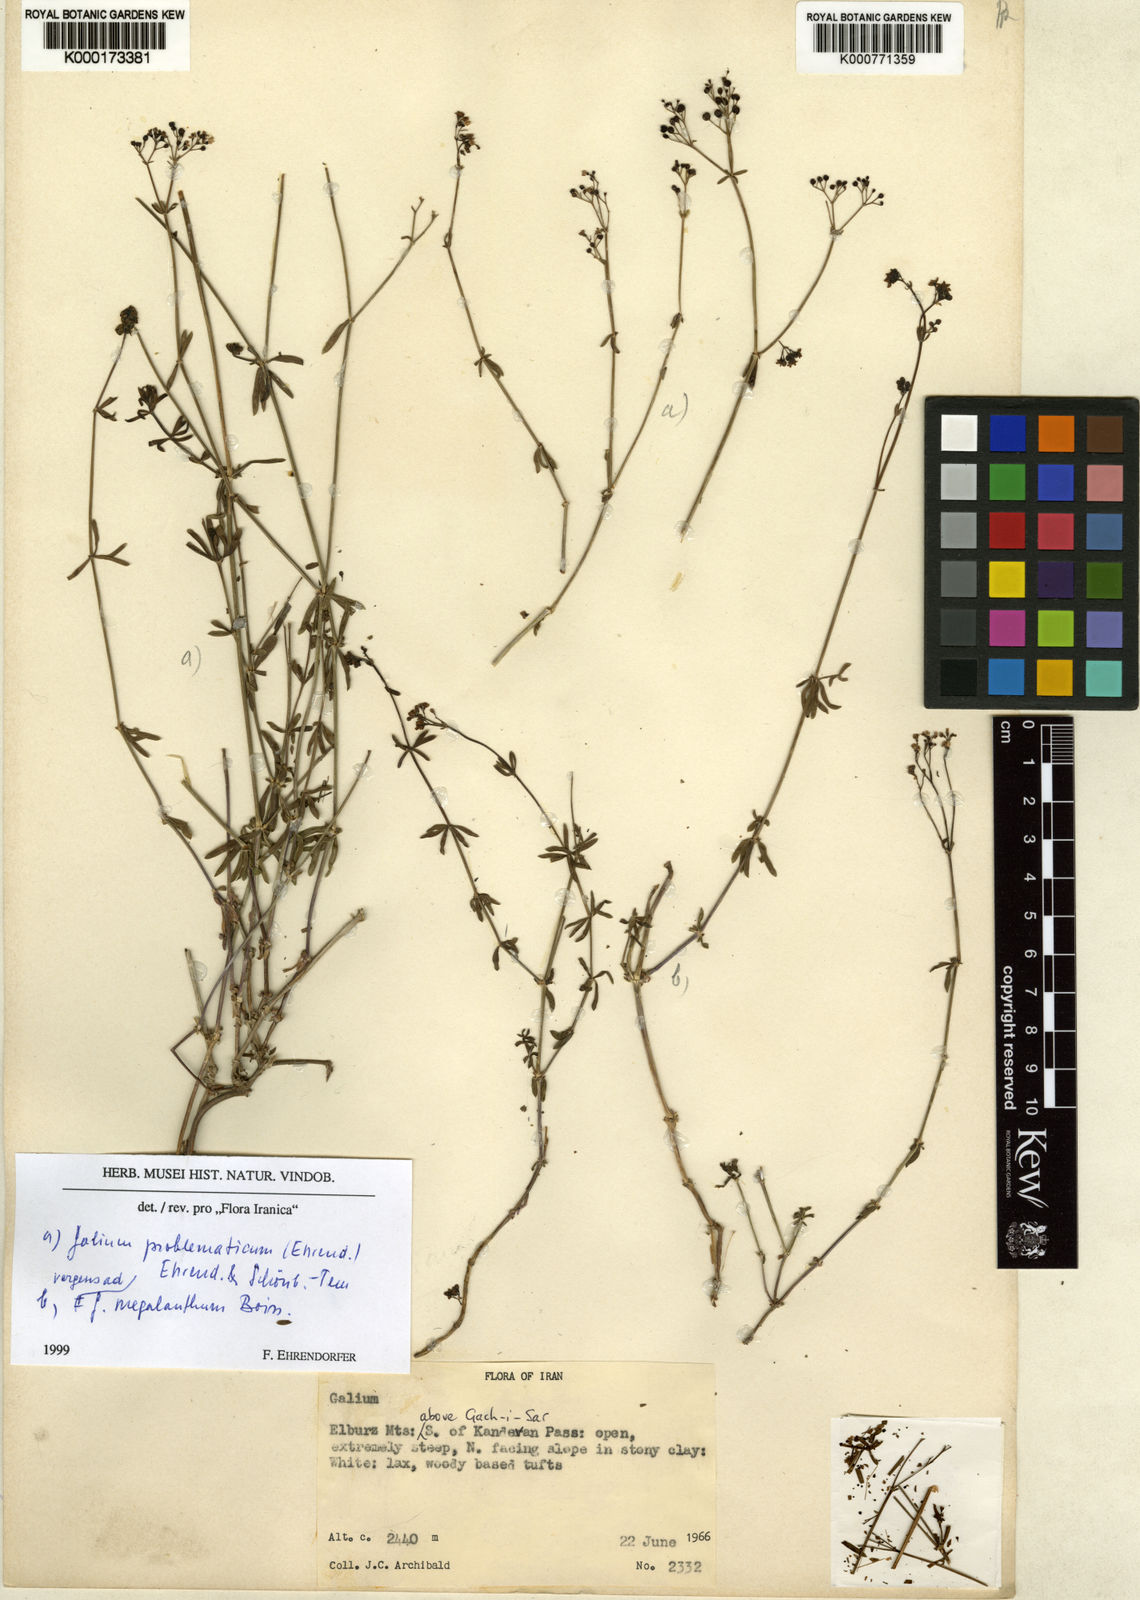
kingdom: Plantae
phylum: Tracheophyta
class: Magnoliopsida
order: Gentianales
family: Rubiaceae
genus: Galium
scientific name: Galium
